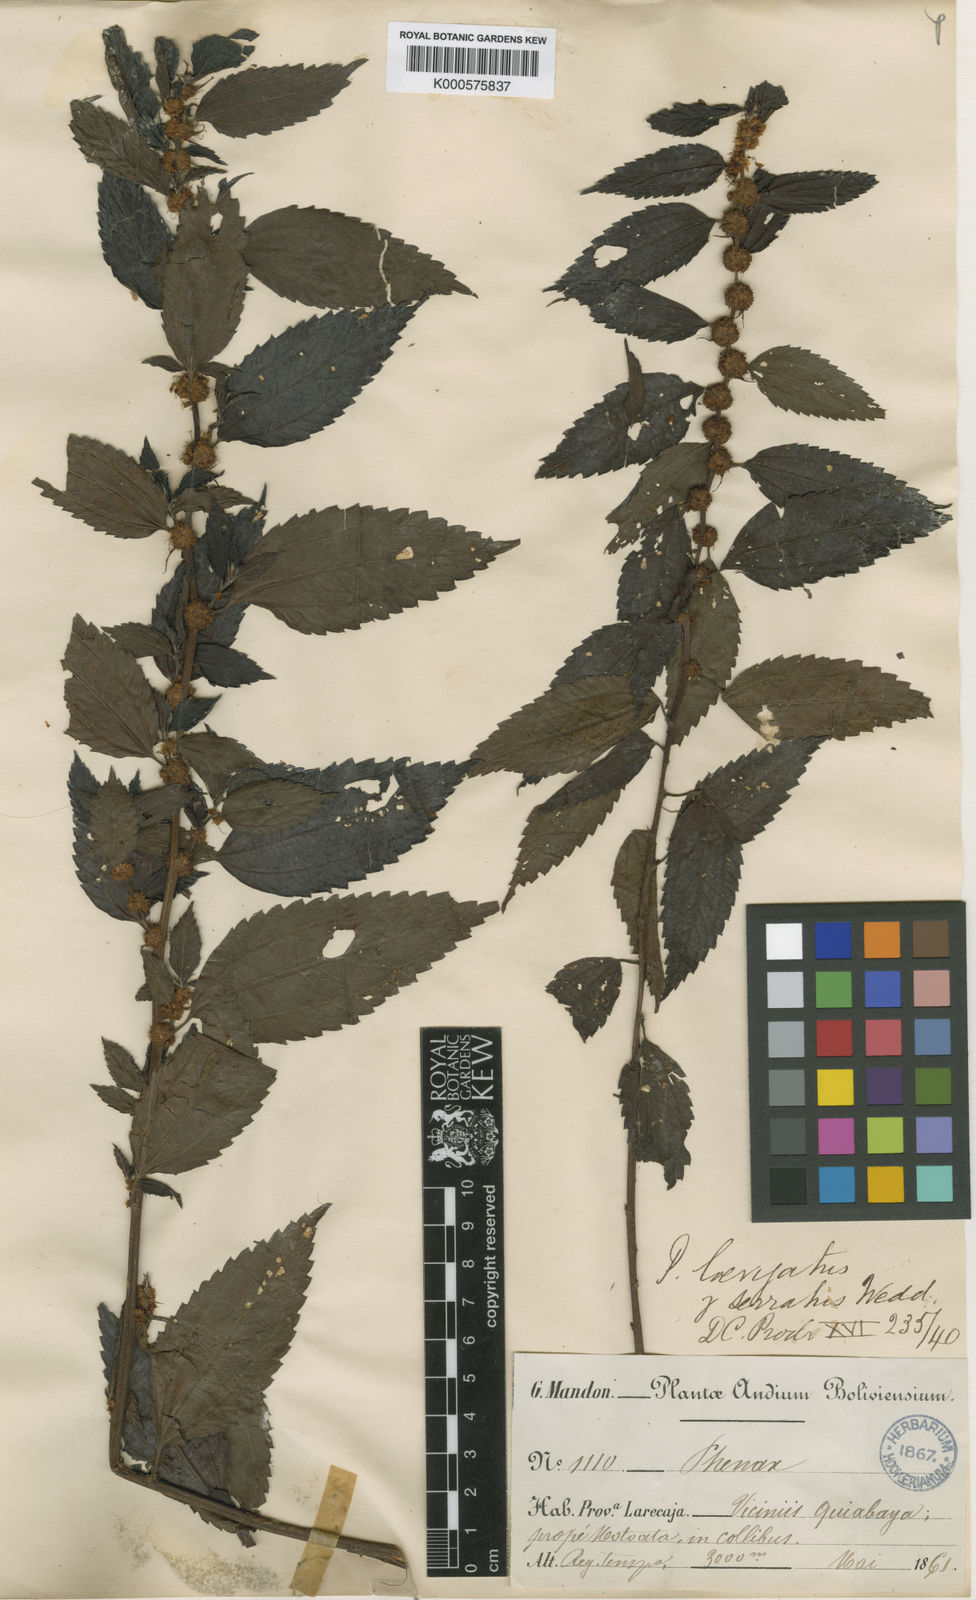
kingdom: Plantae
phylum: Tracheophyta
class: Magnoliopsida
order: Rosales
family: Urticaceae
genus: Phenax
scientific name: Phenax laevigatus
